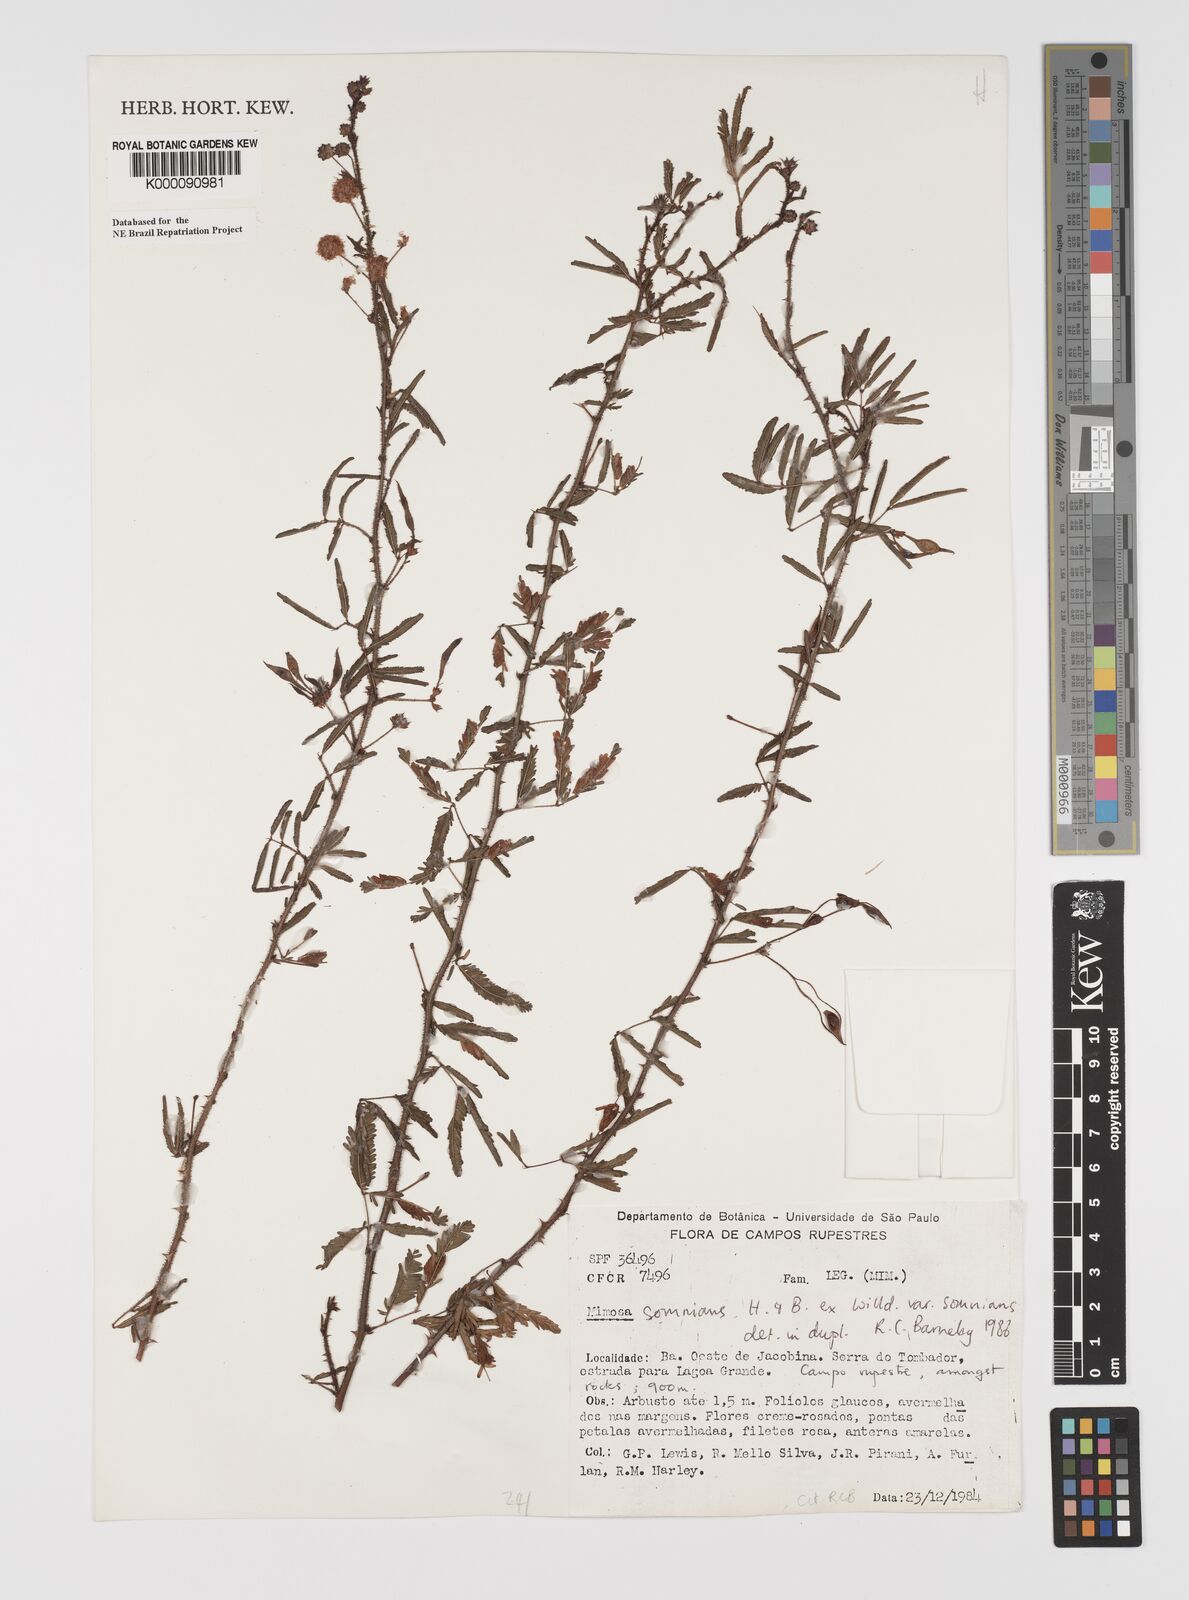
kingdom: Plantae
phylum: Tracheophyta
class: Magnoliopsida
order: Fabales
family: Fabaceae
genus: Mimosa
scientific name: Mimosa somnians
